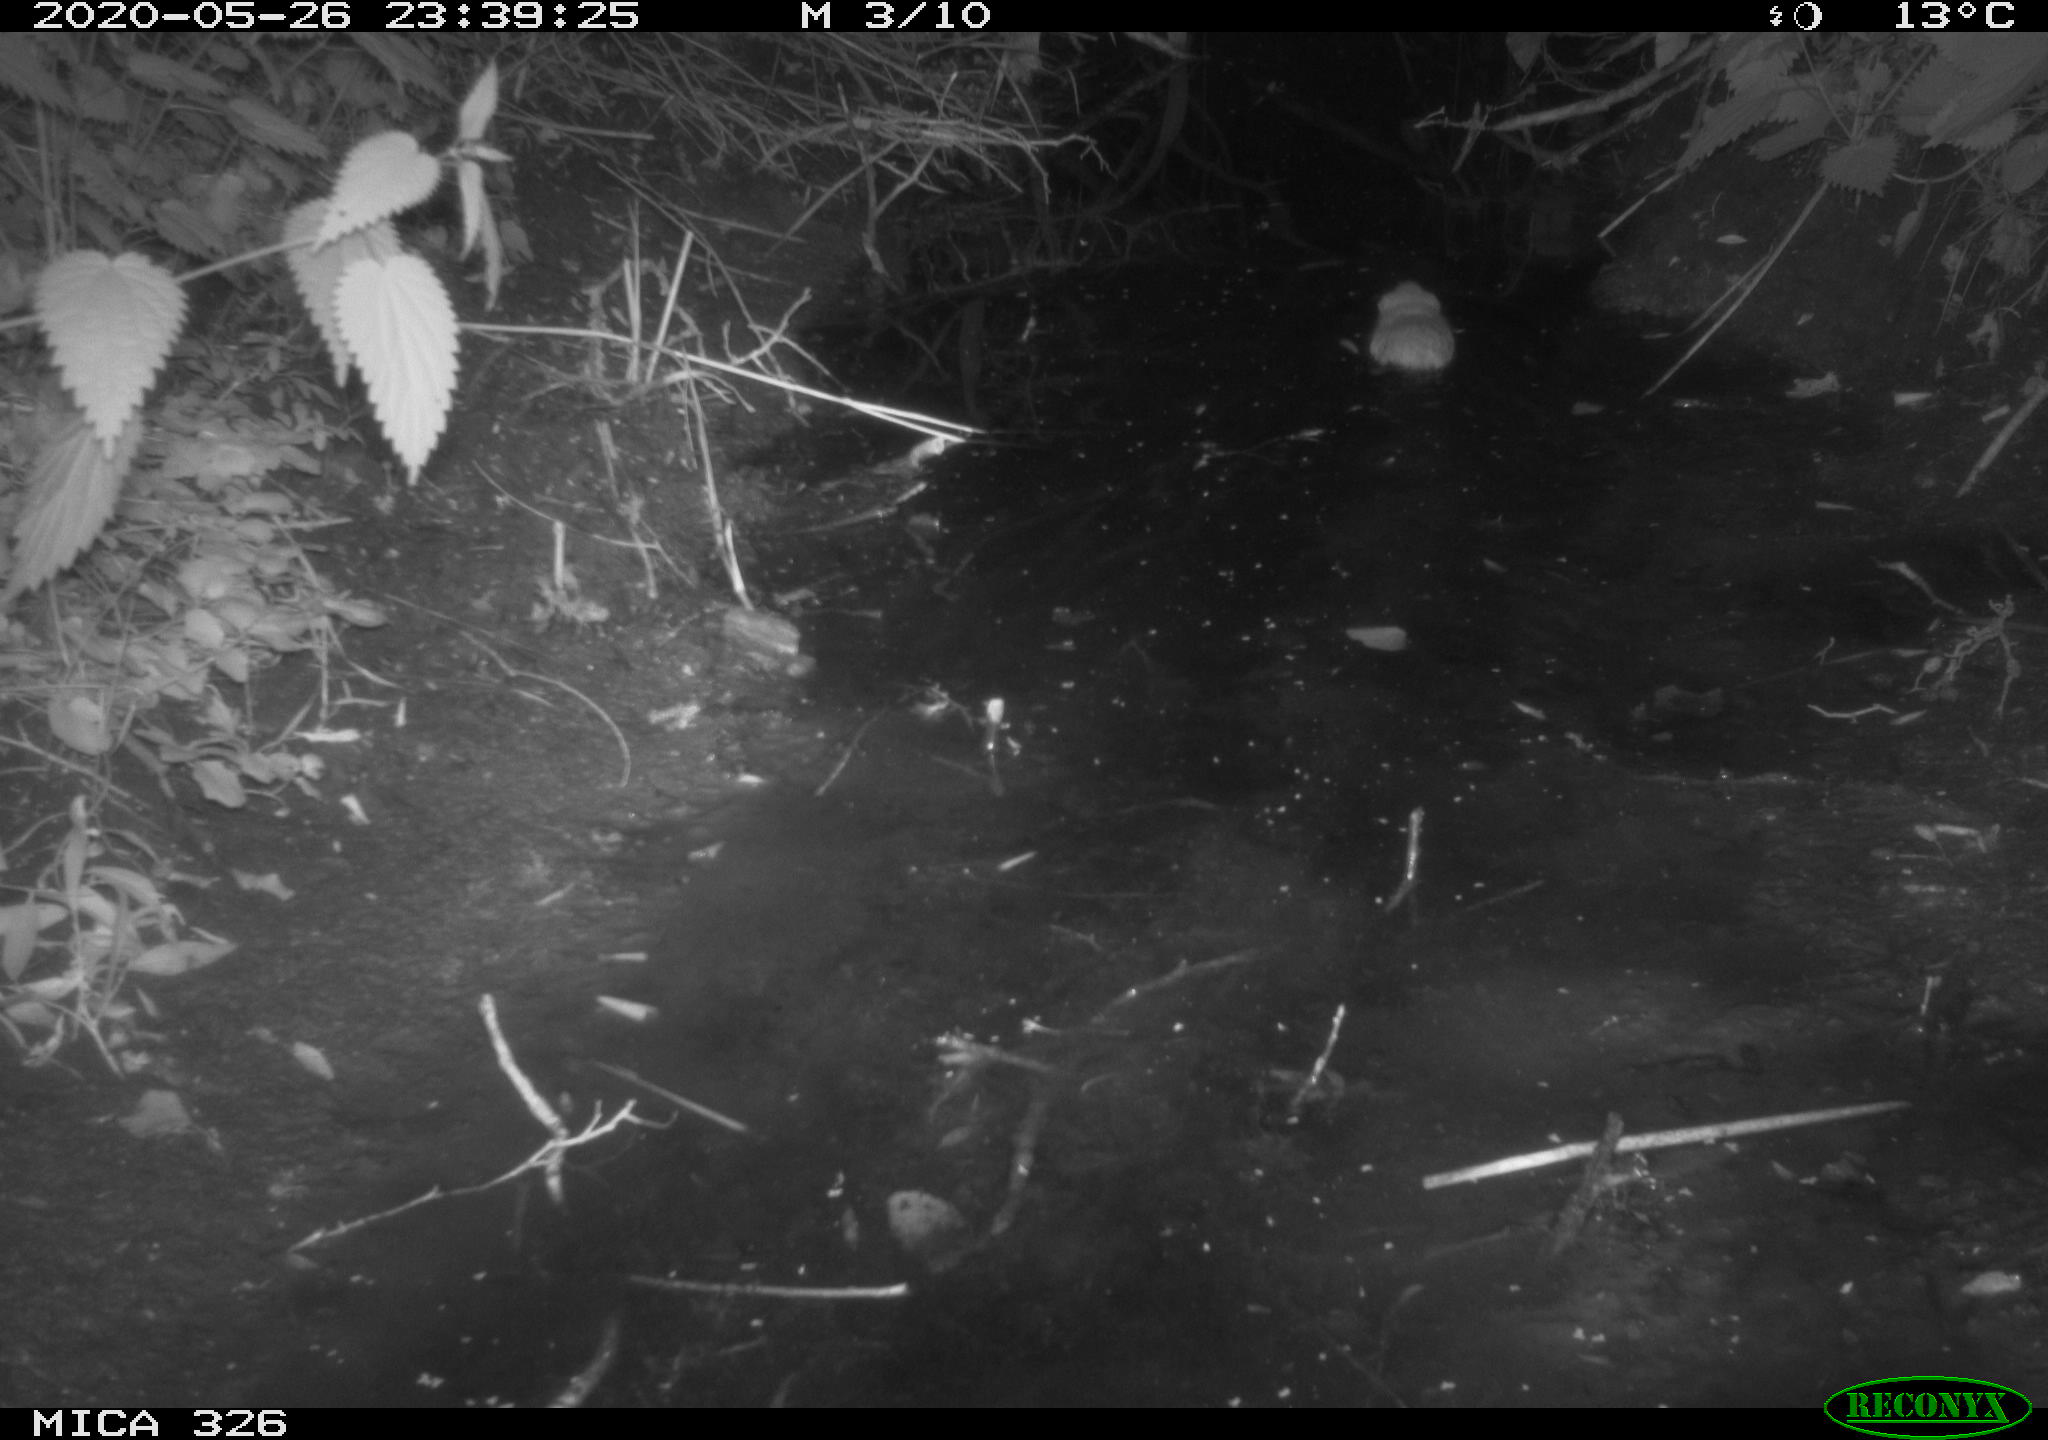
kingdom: Animalia
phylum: Chordata
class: Mammalia
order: Rodentia
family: Cricetidae
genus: Ondatra
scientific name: Ondatra zibethicus
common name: Muskrat
